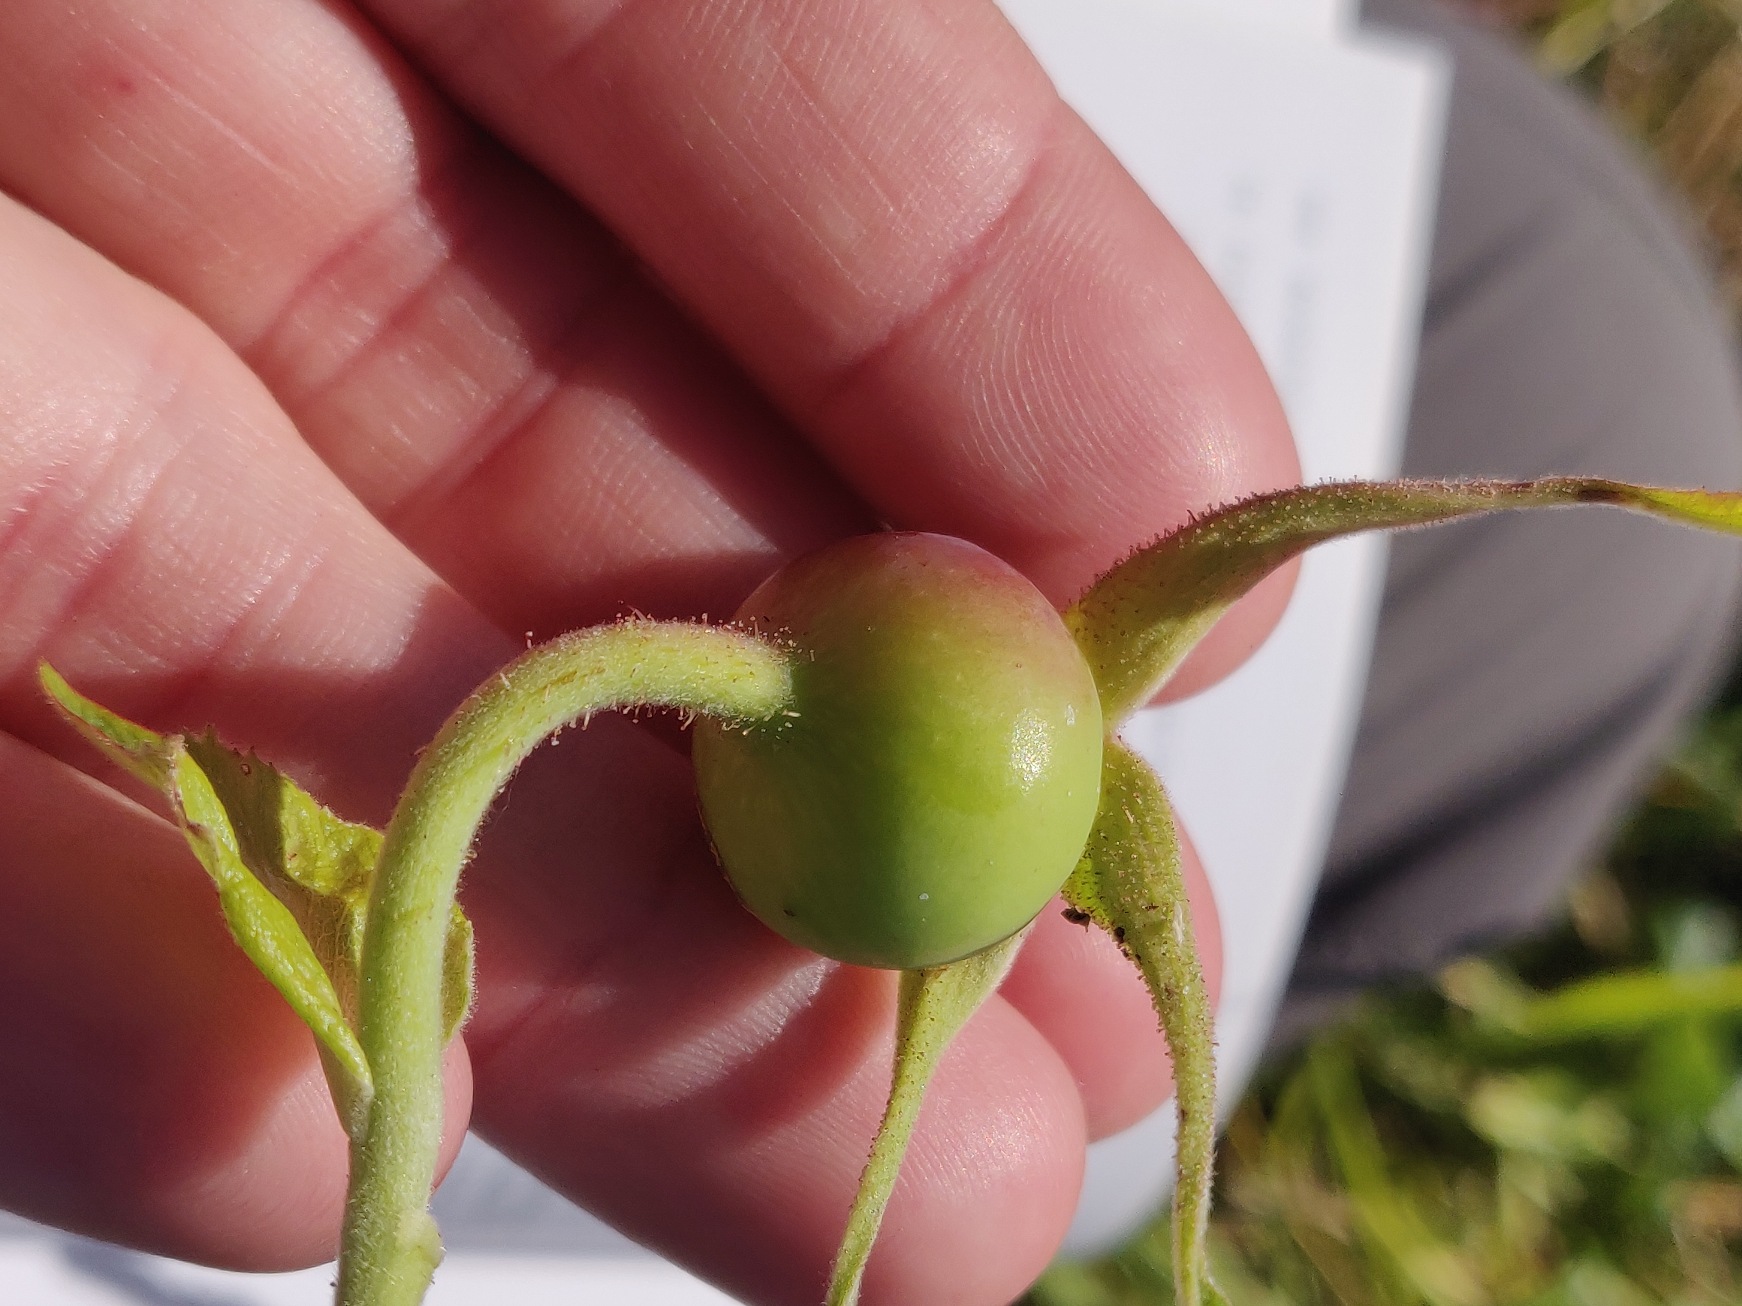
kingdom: Plantae
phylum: Tracheophyta
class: Magnoliopsida
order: Rosales
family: Rosaceae
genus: Rosa
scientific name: Rosa rugosa
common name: Rynket rose
